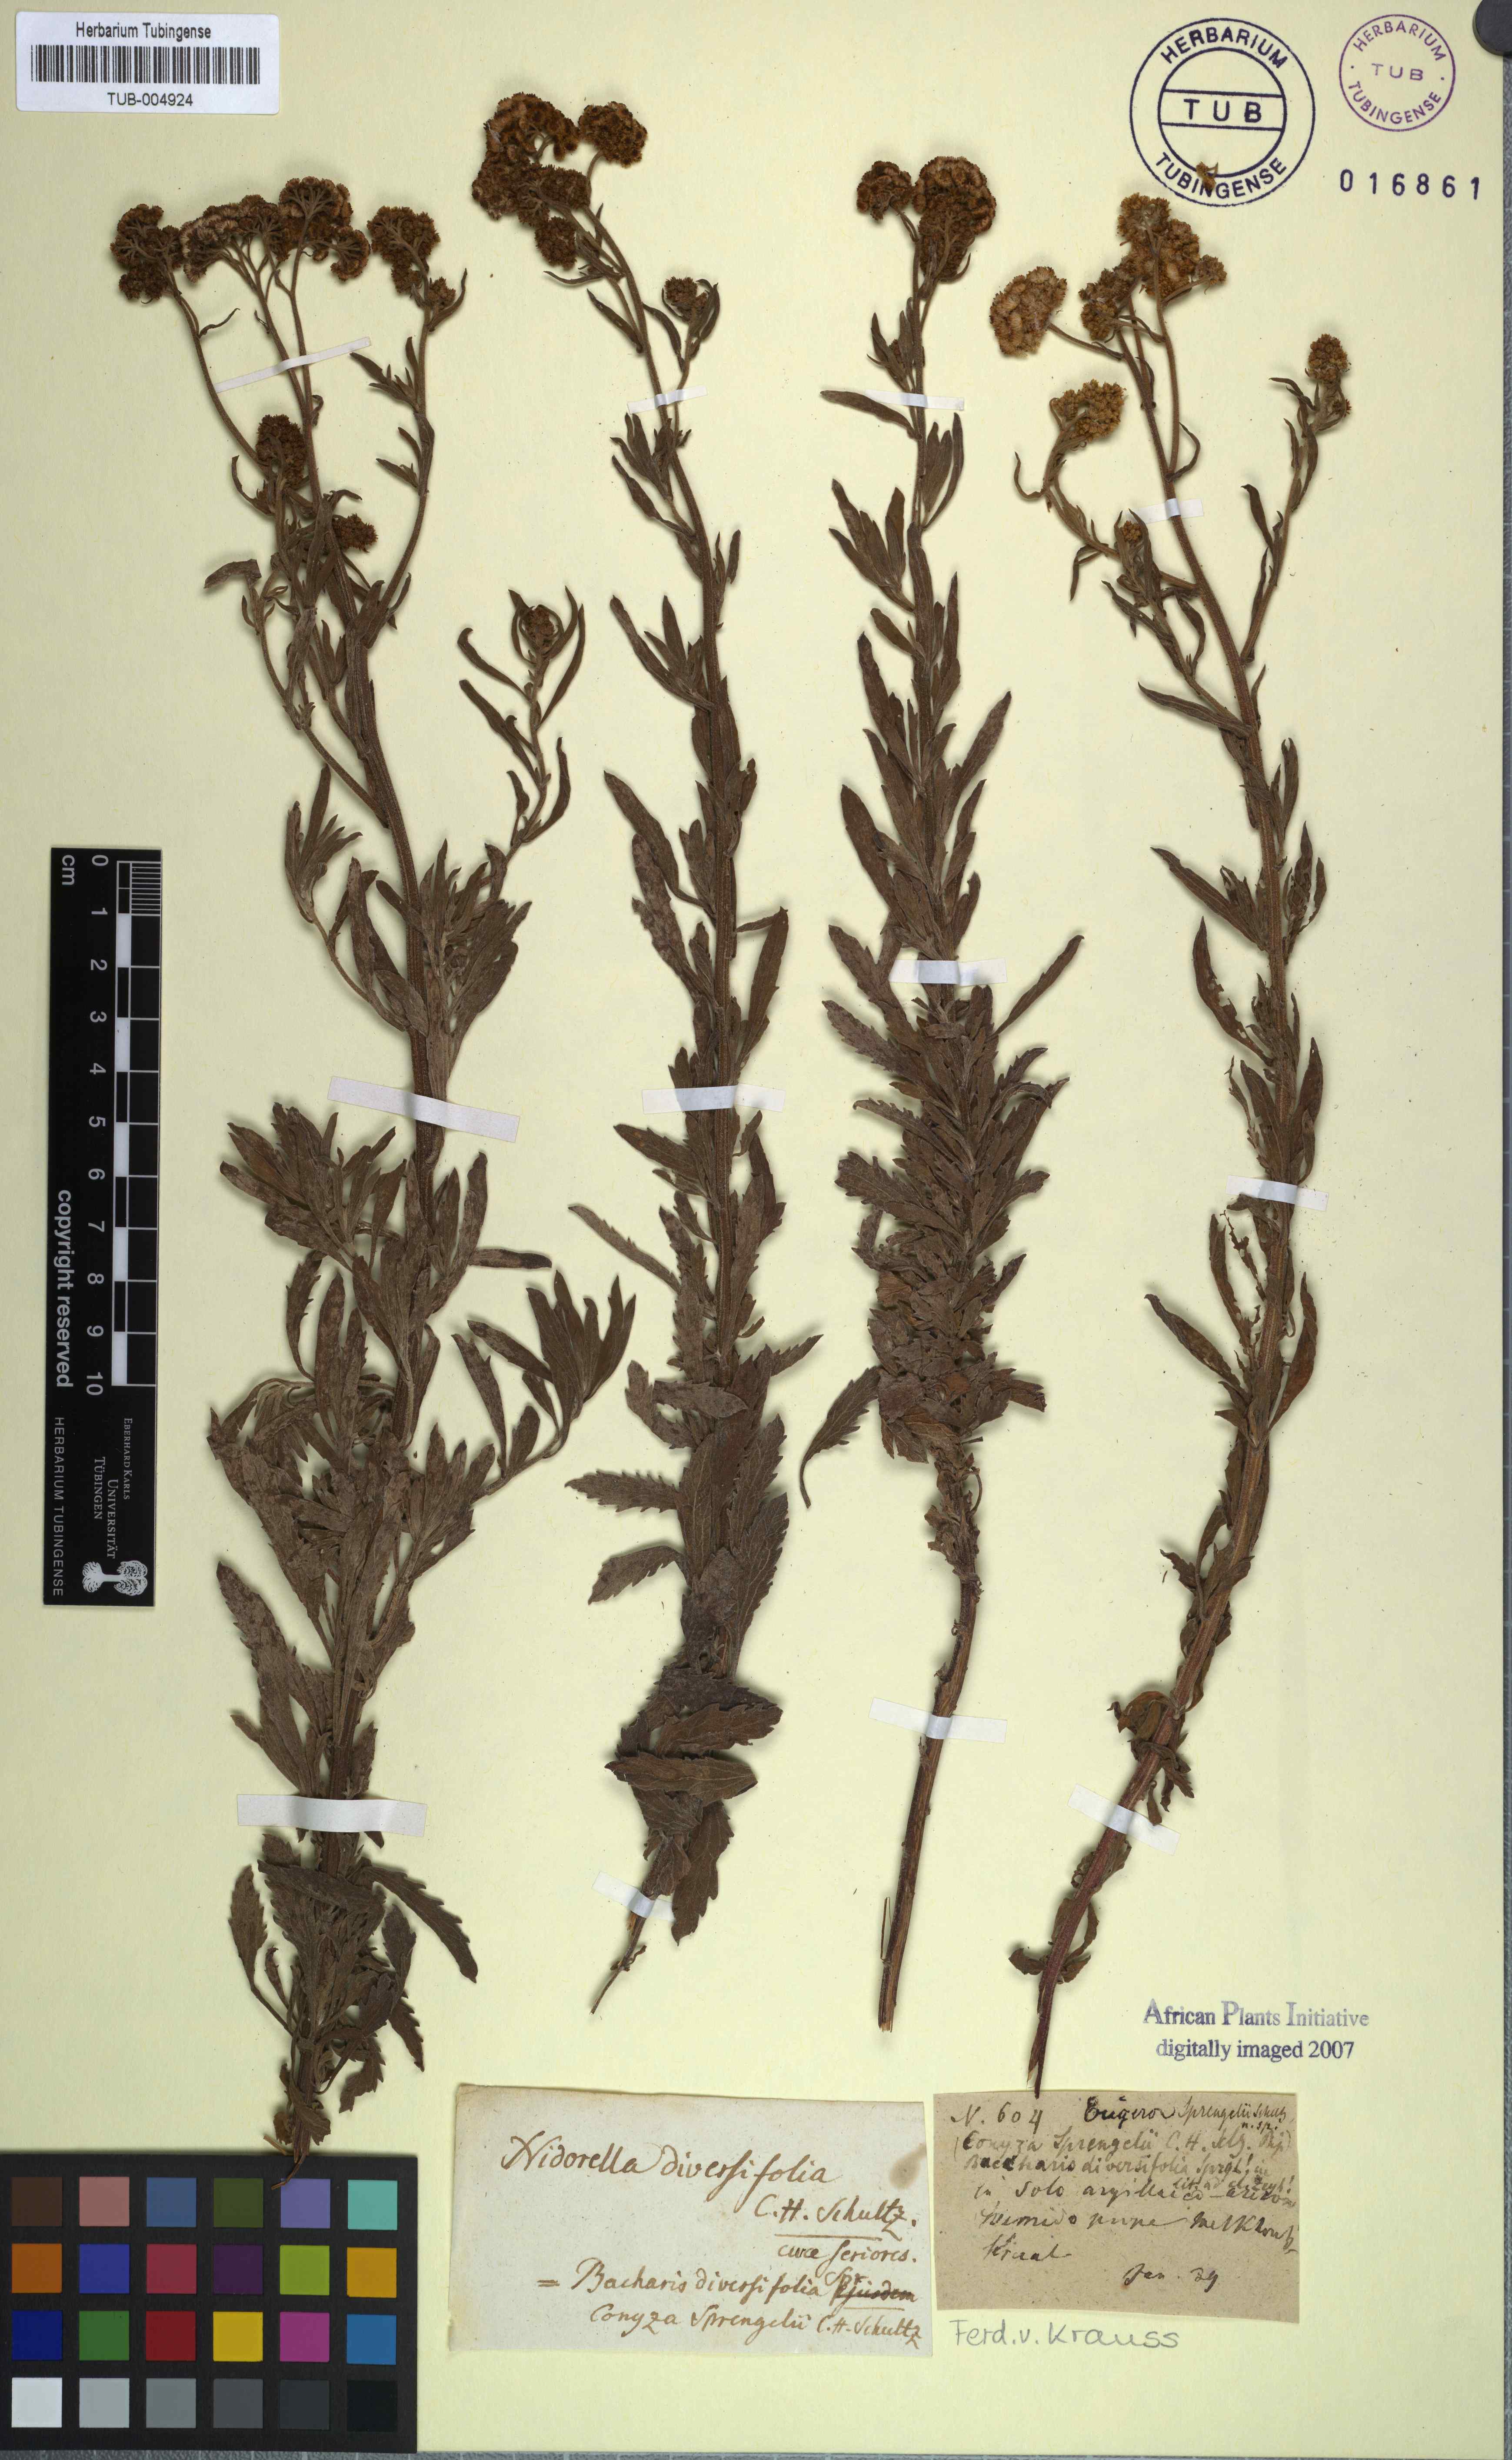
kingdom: Plantae
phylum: Tracheophyta
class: Magnoliopsida
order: Asterales
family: Asteraceae
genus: Erigeron
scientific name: Erigeron Conyza sprengelii
